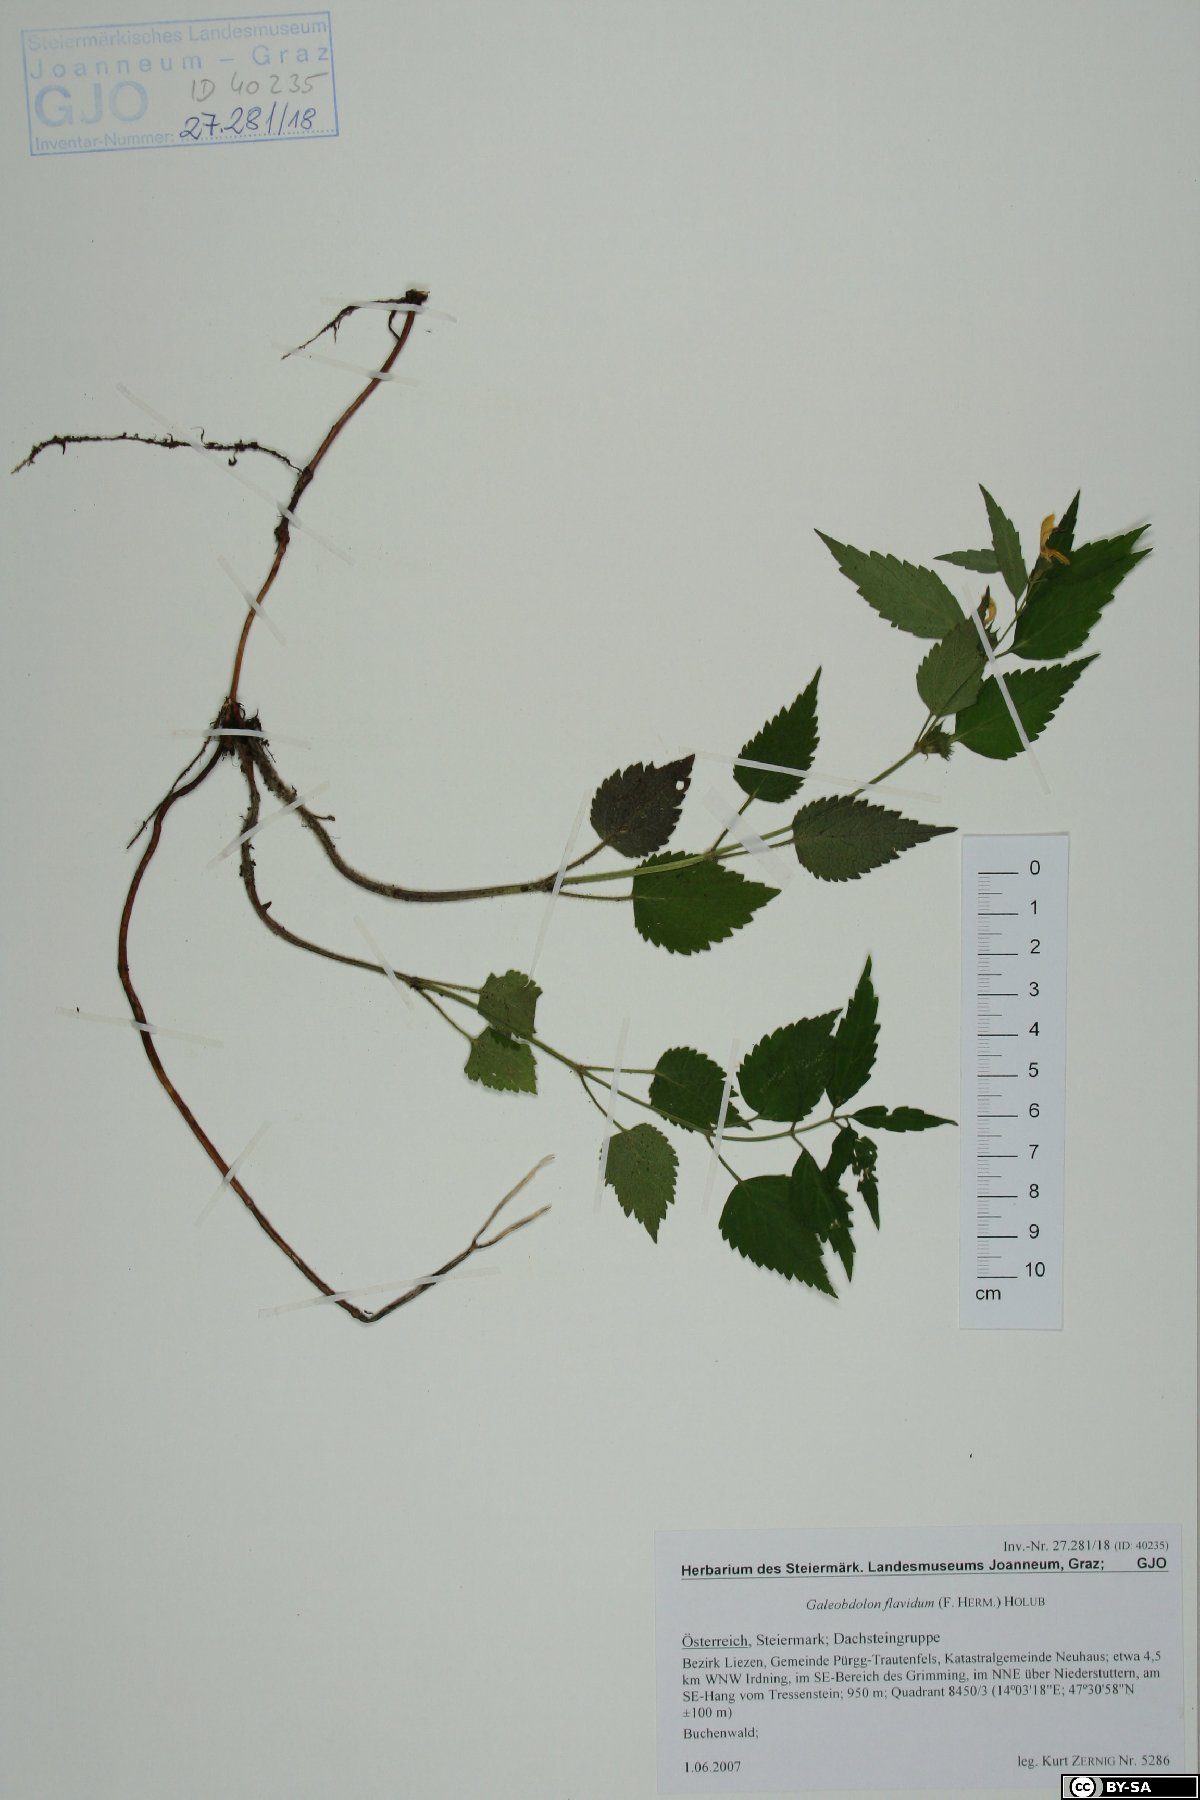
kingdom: Plantae
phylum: Tracheophyta
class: Magnoliopsida
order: Lamiales
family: Lamiaceae
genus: Lamium
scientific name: Lamium galeobdolon
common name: Yellow archangel
